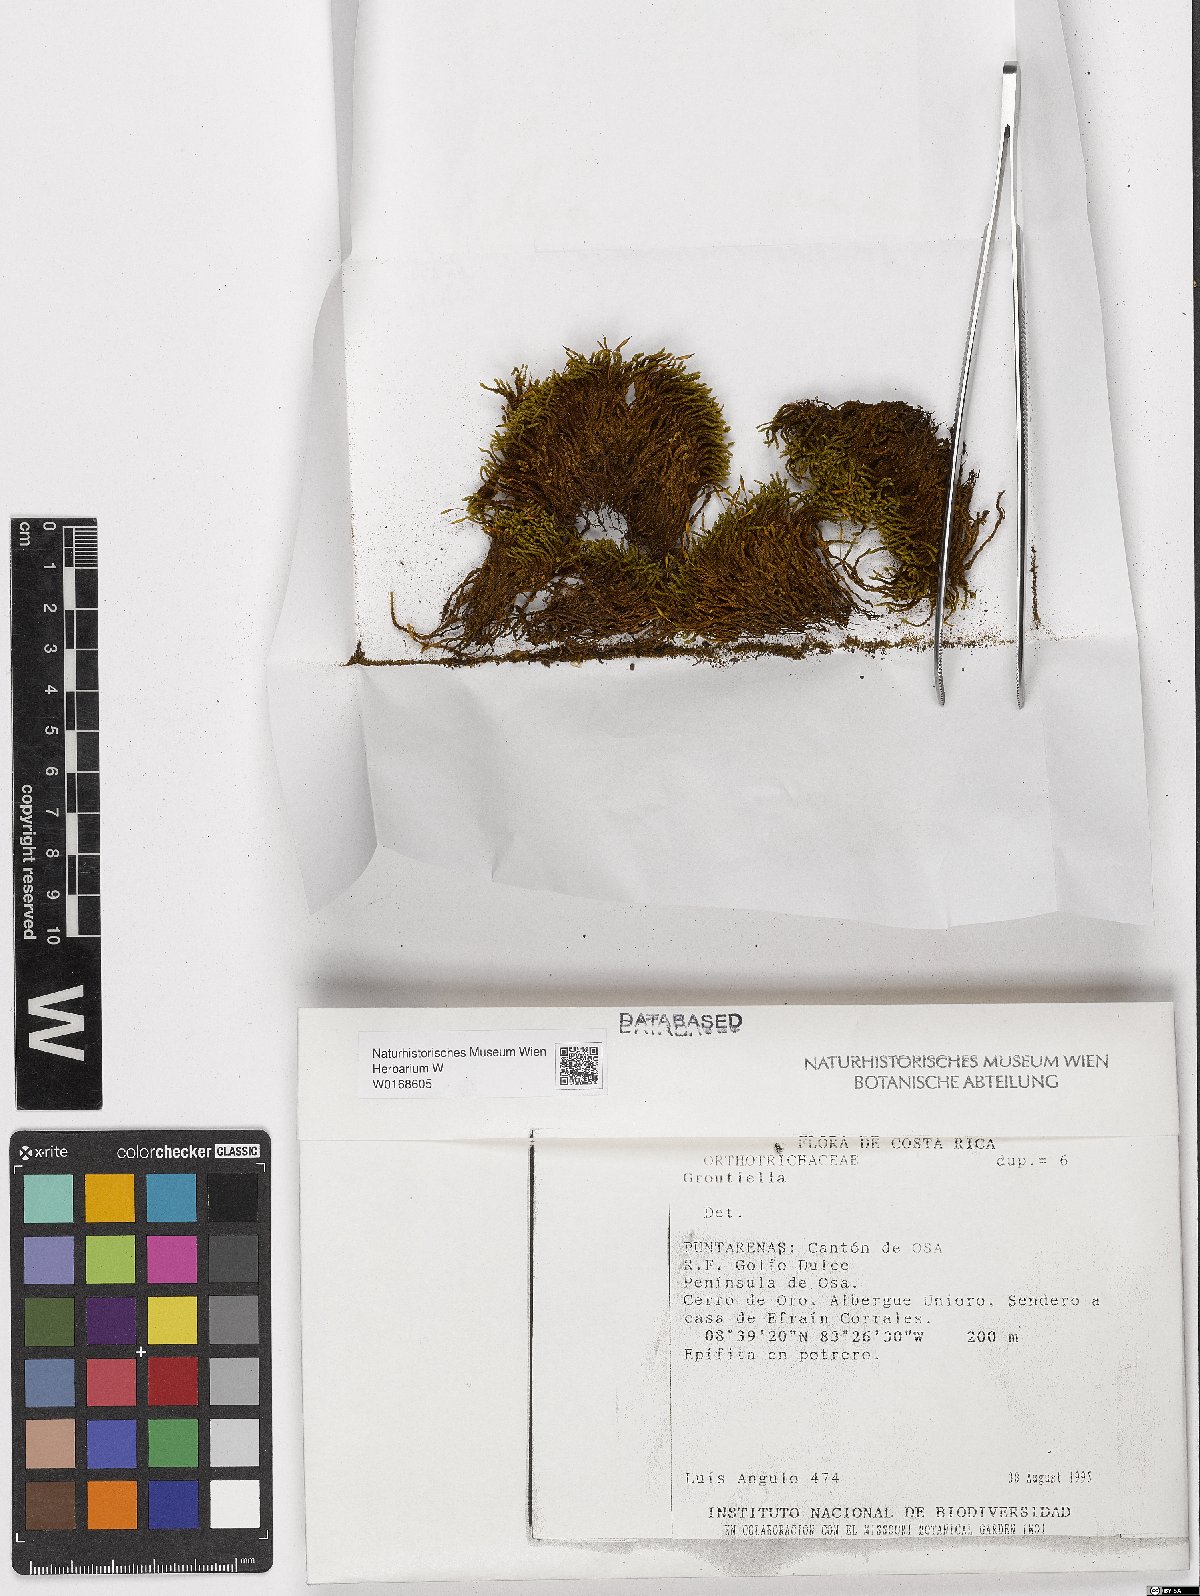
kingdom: Plantae
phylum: Bryophyta
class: Bryopsida
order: Orthotrichales
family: Orthotrichaceae
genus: Groutiella
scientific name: Groutiella
